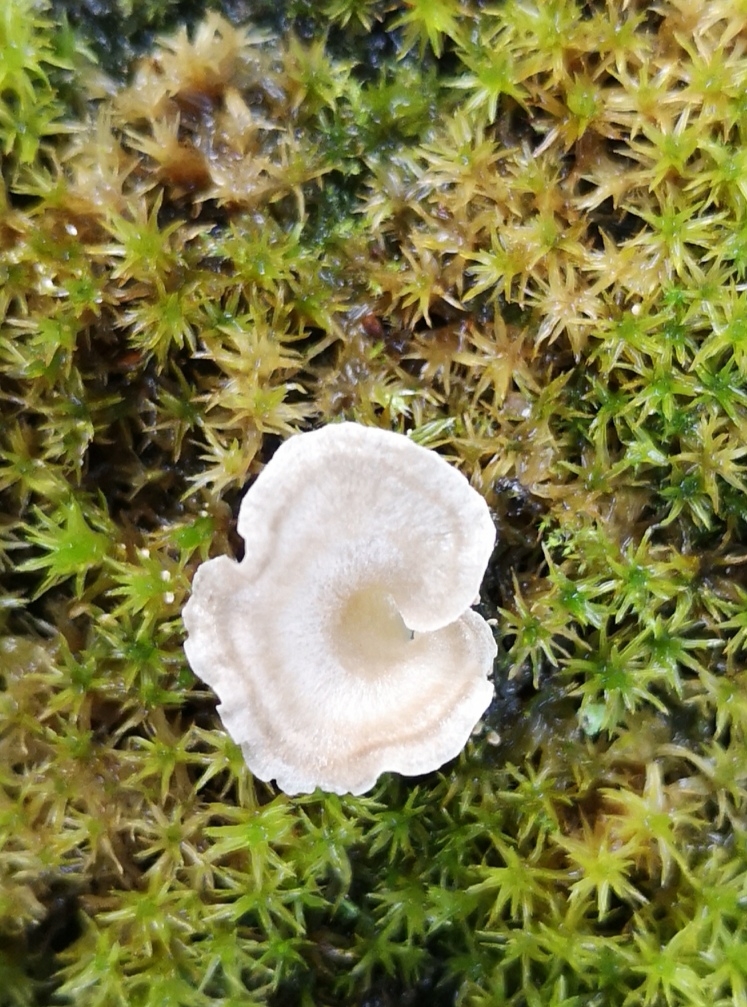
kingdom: Fungi
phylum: Basidiomycota
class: Agaricomycetes
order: Agaricales
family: Hygrophoraceae
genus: Arrhenia
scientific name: Arrhenia spathulata
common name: skæv fontænehat
